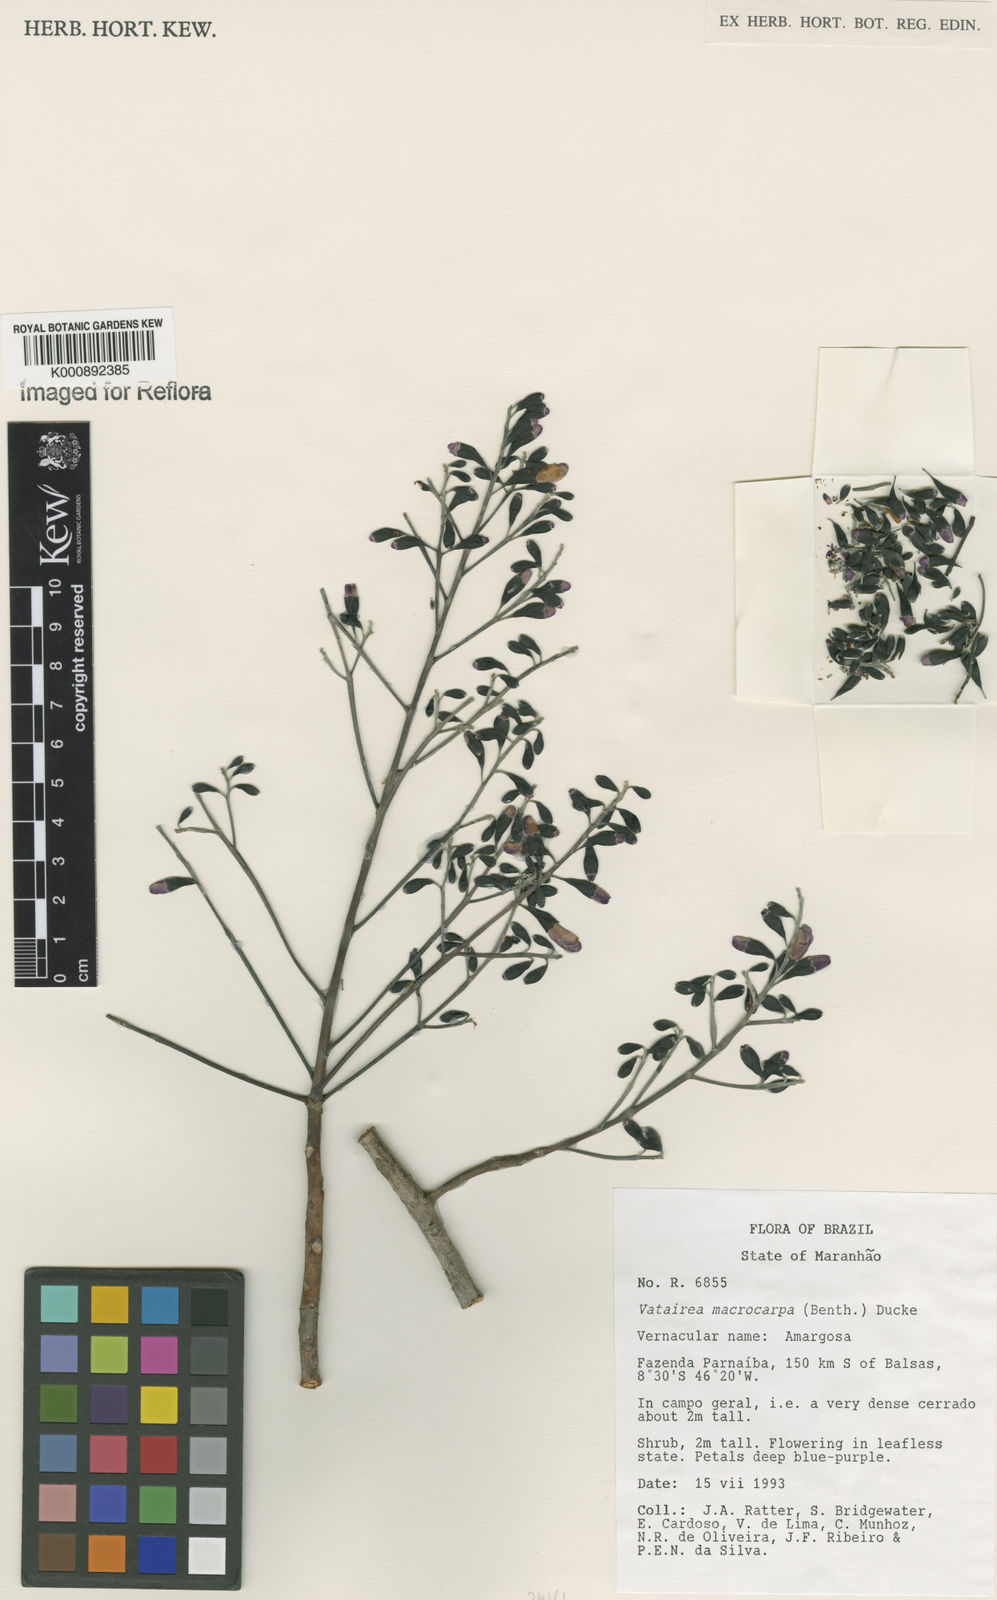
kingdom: Plantae
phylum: Tracheophyta
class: Magnoliopsida
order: Fabales
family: Fabaceae
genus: Vatairea
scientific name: Vatairea macrocarpa
